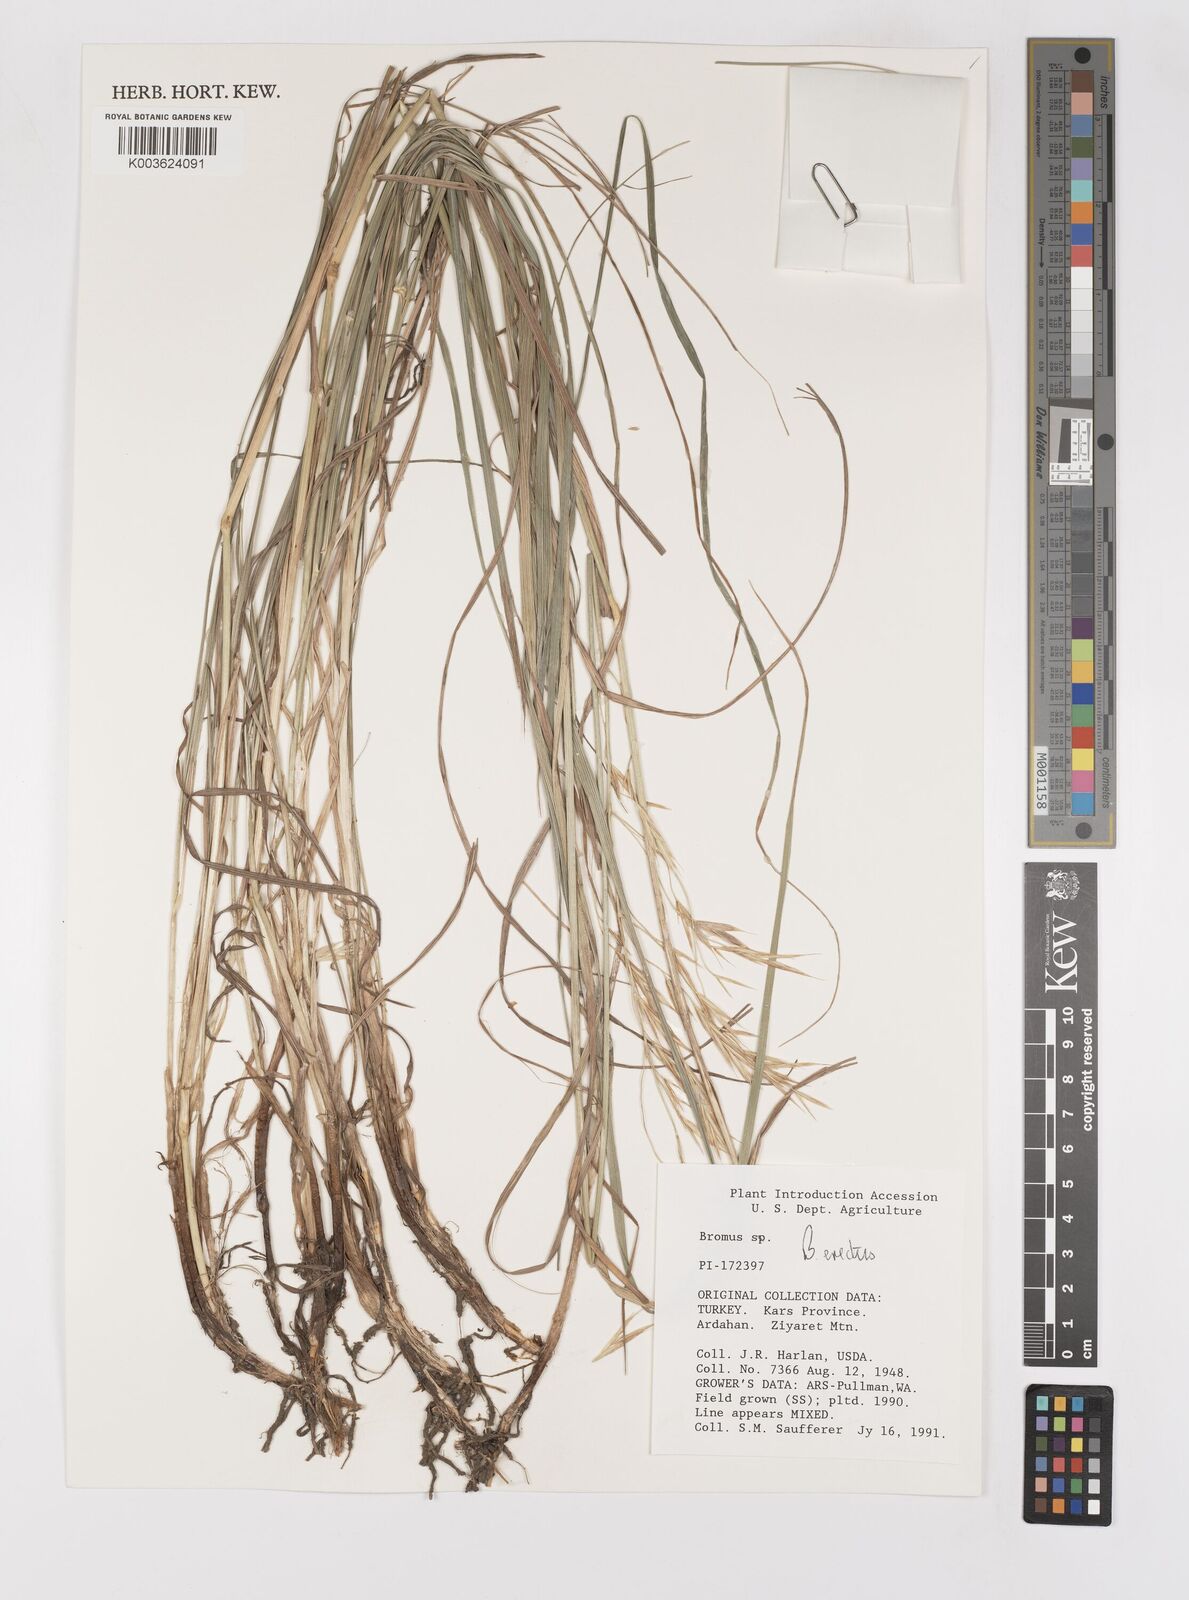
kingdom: Plantae
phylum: Tracheophyta
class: Liliopsida
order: Poales
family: Poaceae
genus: Bromus
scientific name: Bromus erectus
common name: Erect brome
